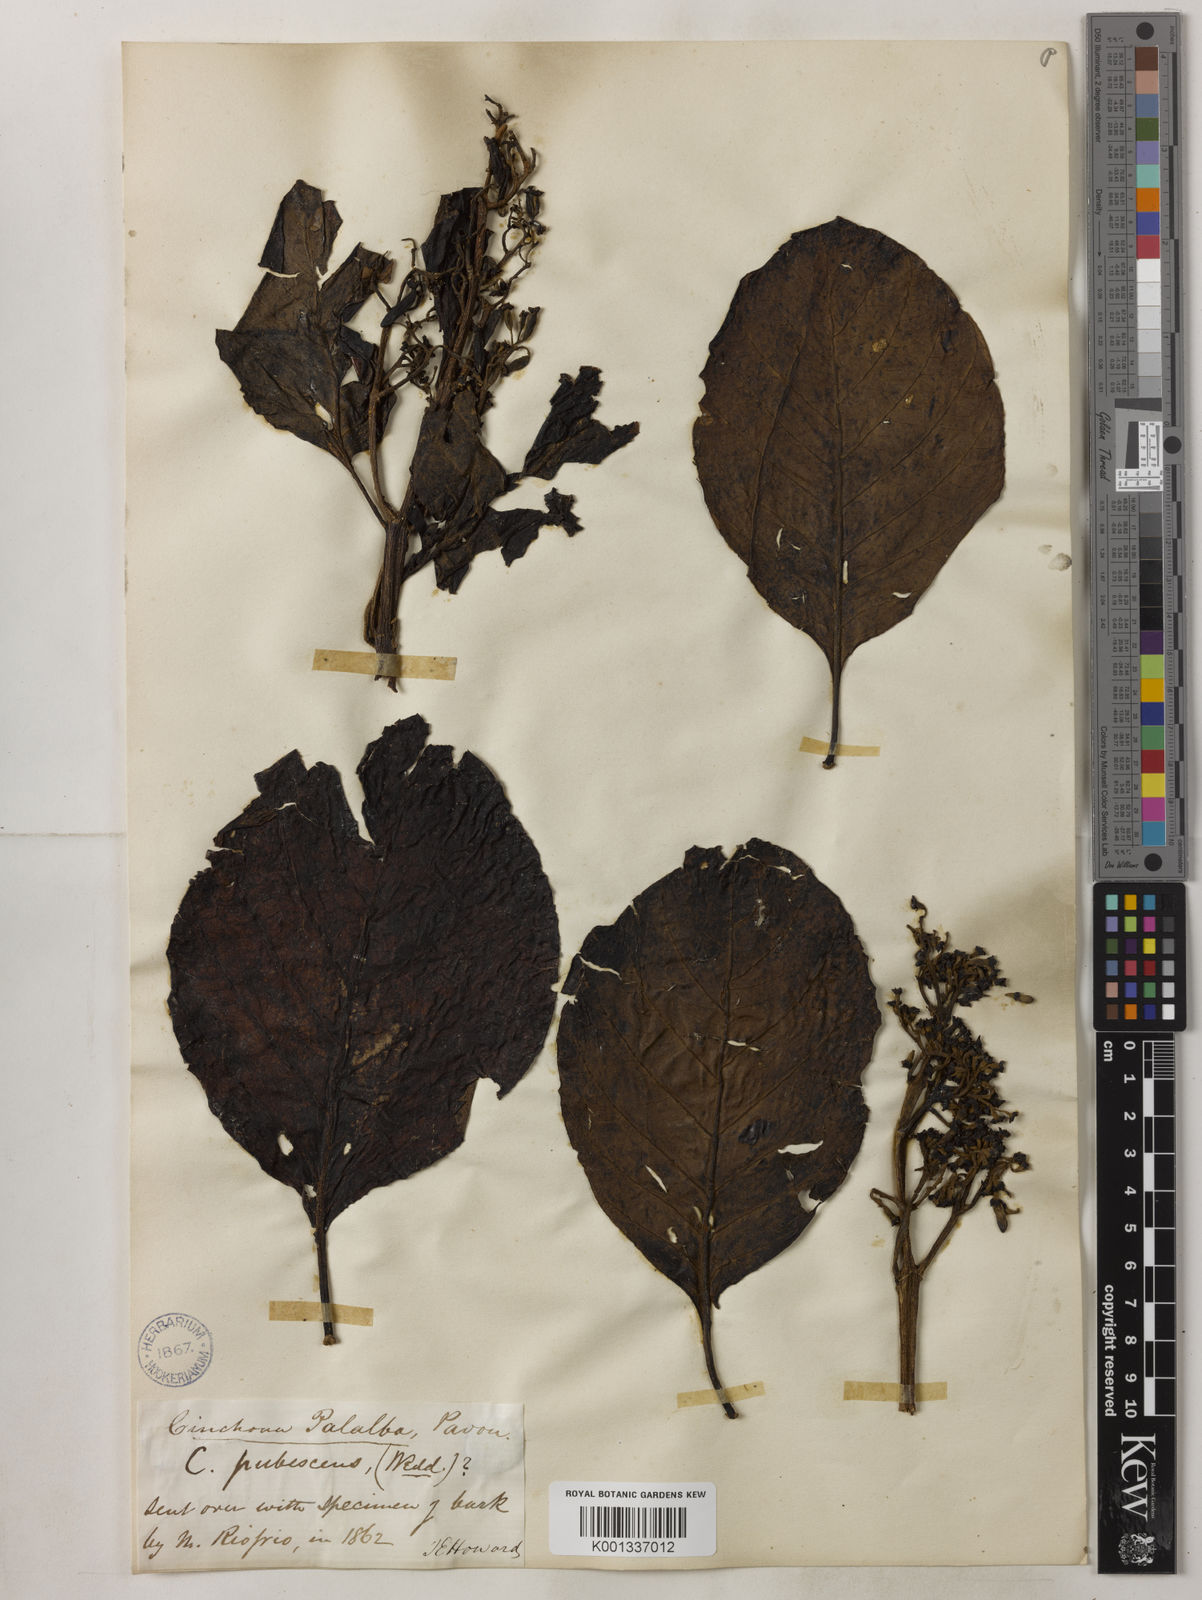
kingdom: Plantae
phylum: Tracheophyta
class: Magnoliopsida
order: Gentianales
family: Rubiaceae
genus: Cinchona
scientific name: Cinchona pubescens
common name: Quinine
